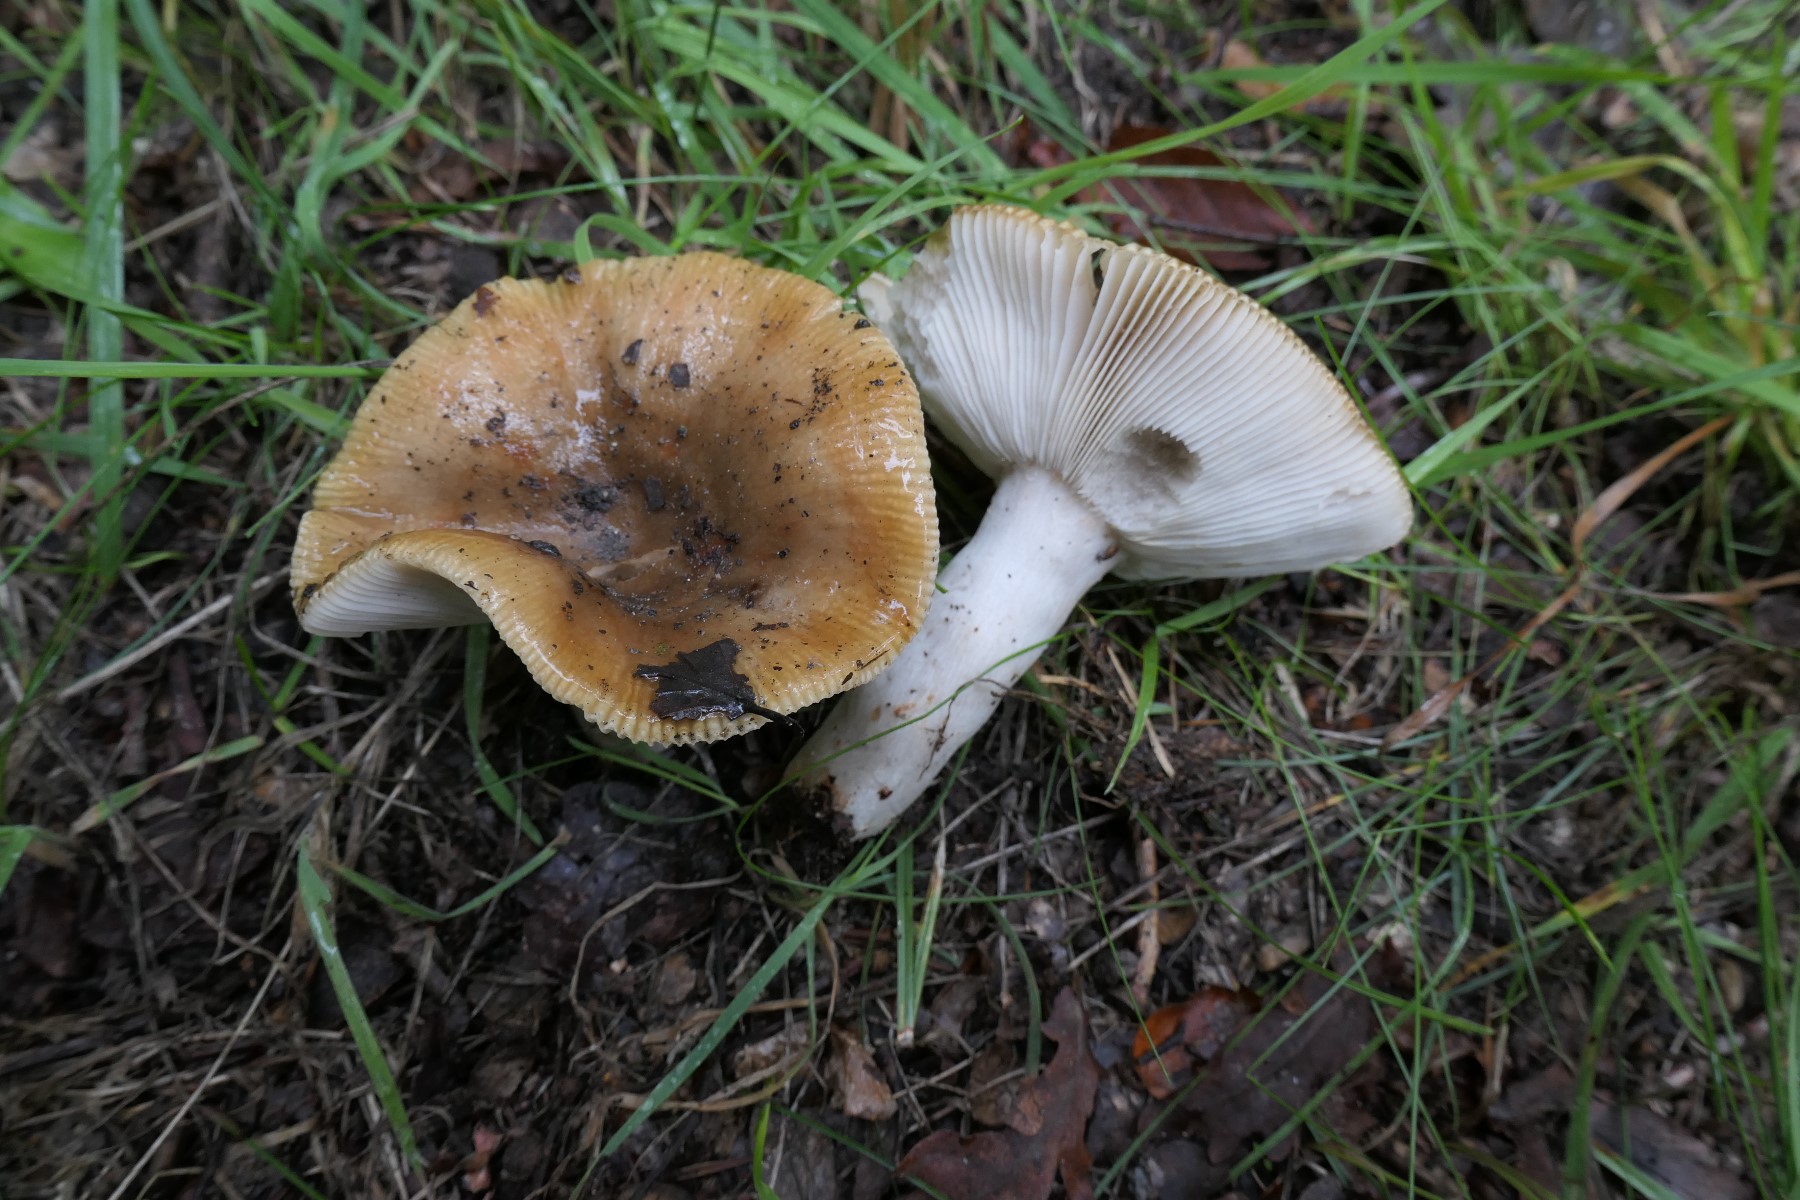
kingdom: Fungi
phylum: Basidiomycota
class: Agaricomycetes
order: Russulales
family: Russulaceae
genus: Russula
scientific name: Russula recondita
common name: mild kam-skørhat
